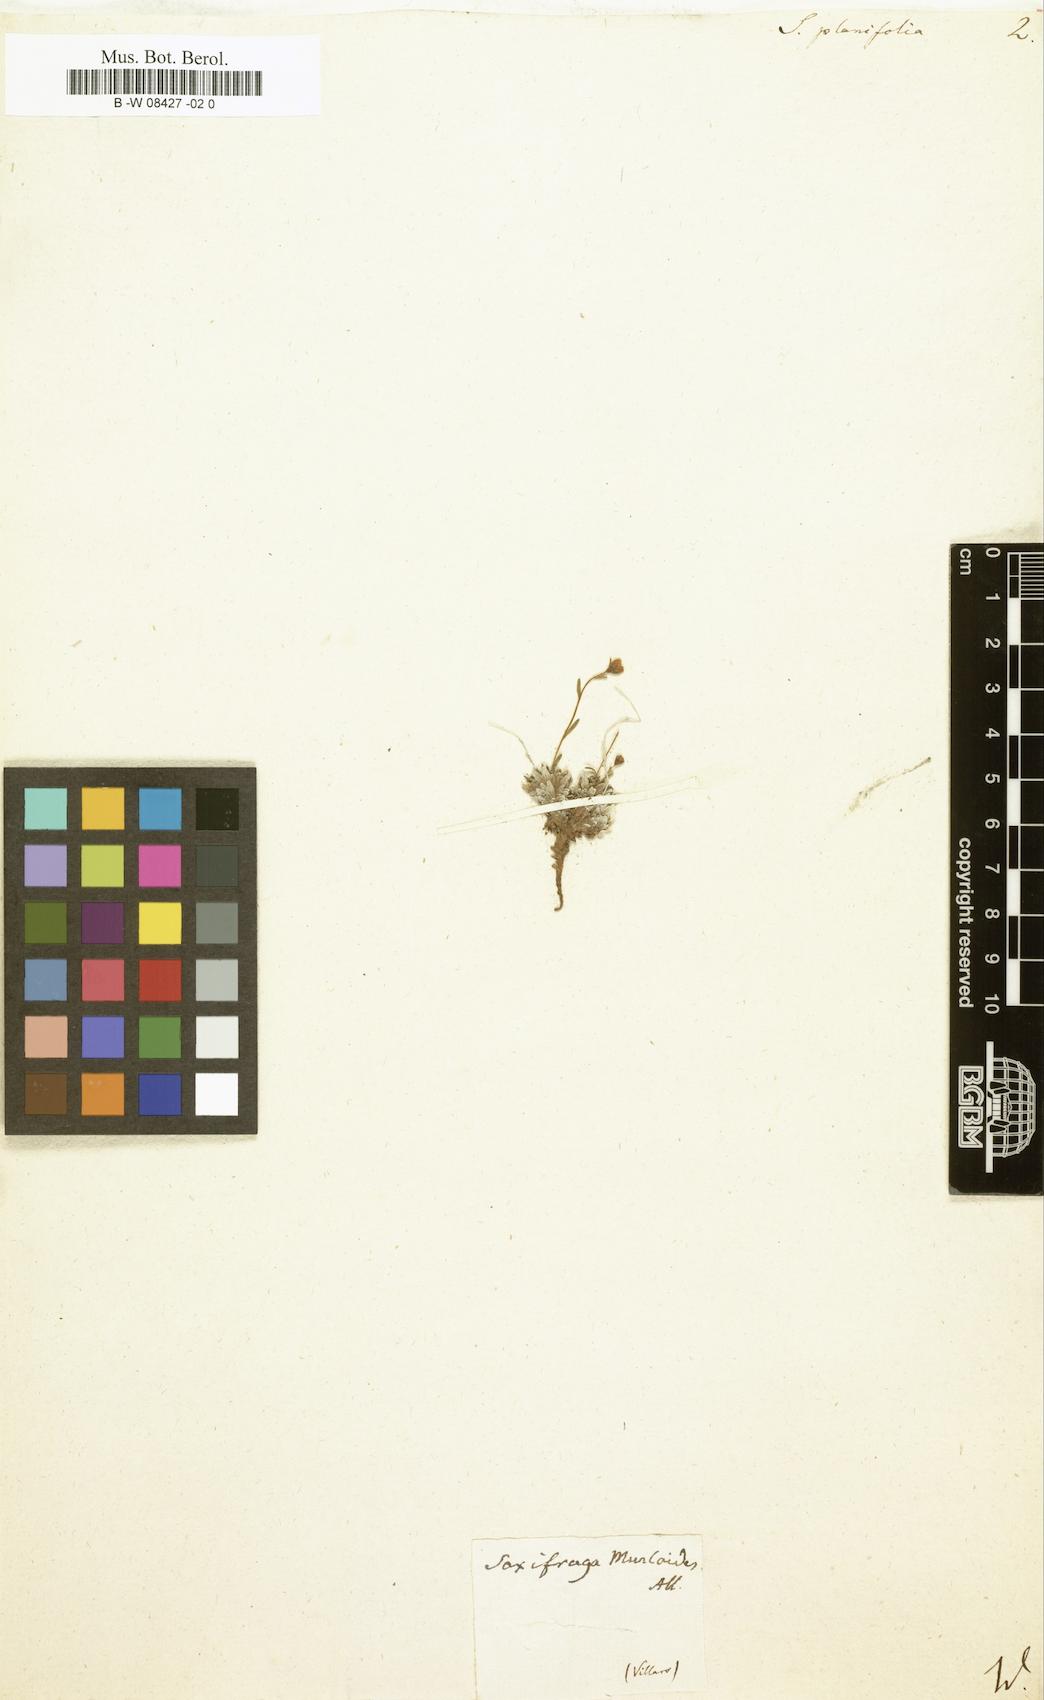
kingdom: Plantae
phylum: Tracheophyta
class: Magnoliopsida
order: Saxifragales
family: Saxifragaceae
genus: Saxifraga
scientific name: Saxifraga
